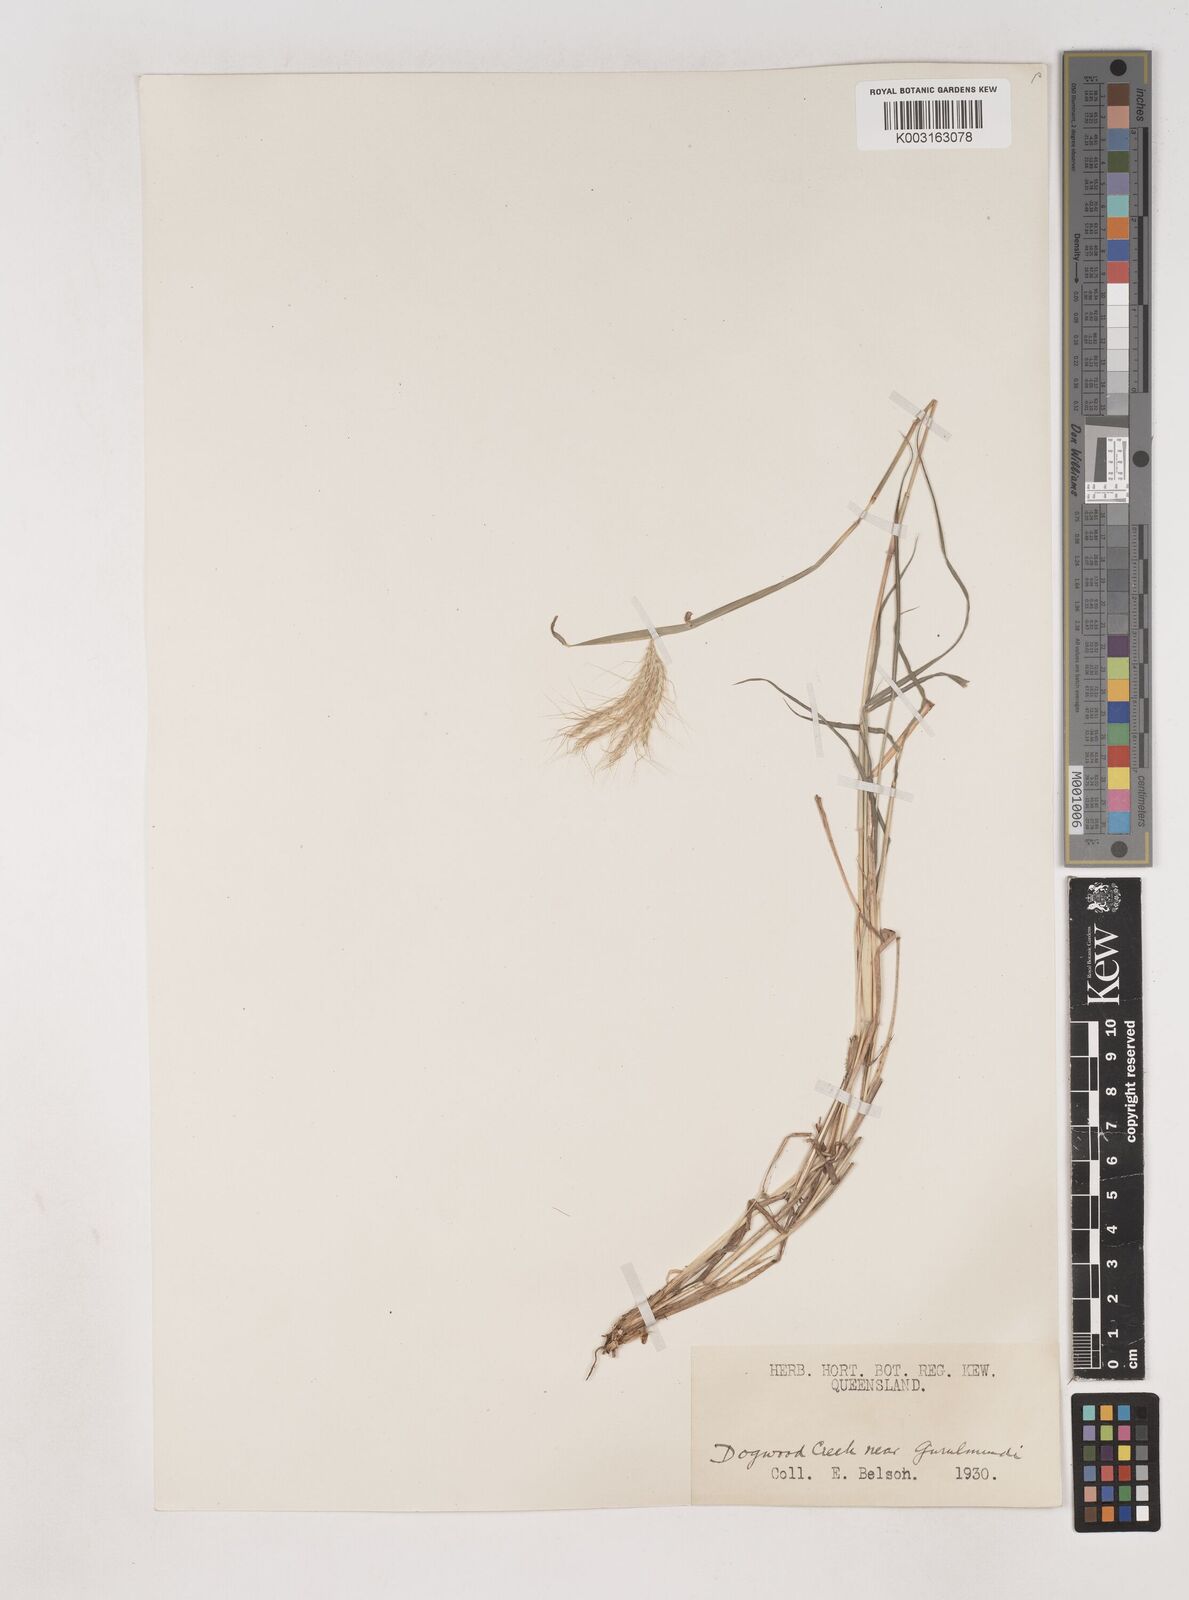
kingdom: Plantae
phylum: Tracheophyta
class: Liliopsida
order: Poales
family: Poaceae
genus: Dichanthium
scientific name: Dichanthium sericeum
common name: Silky bluestem
